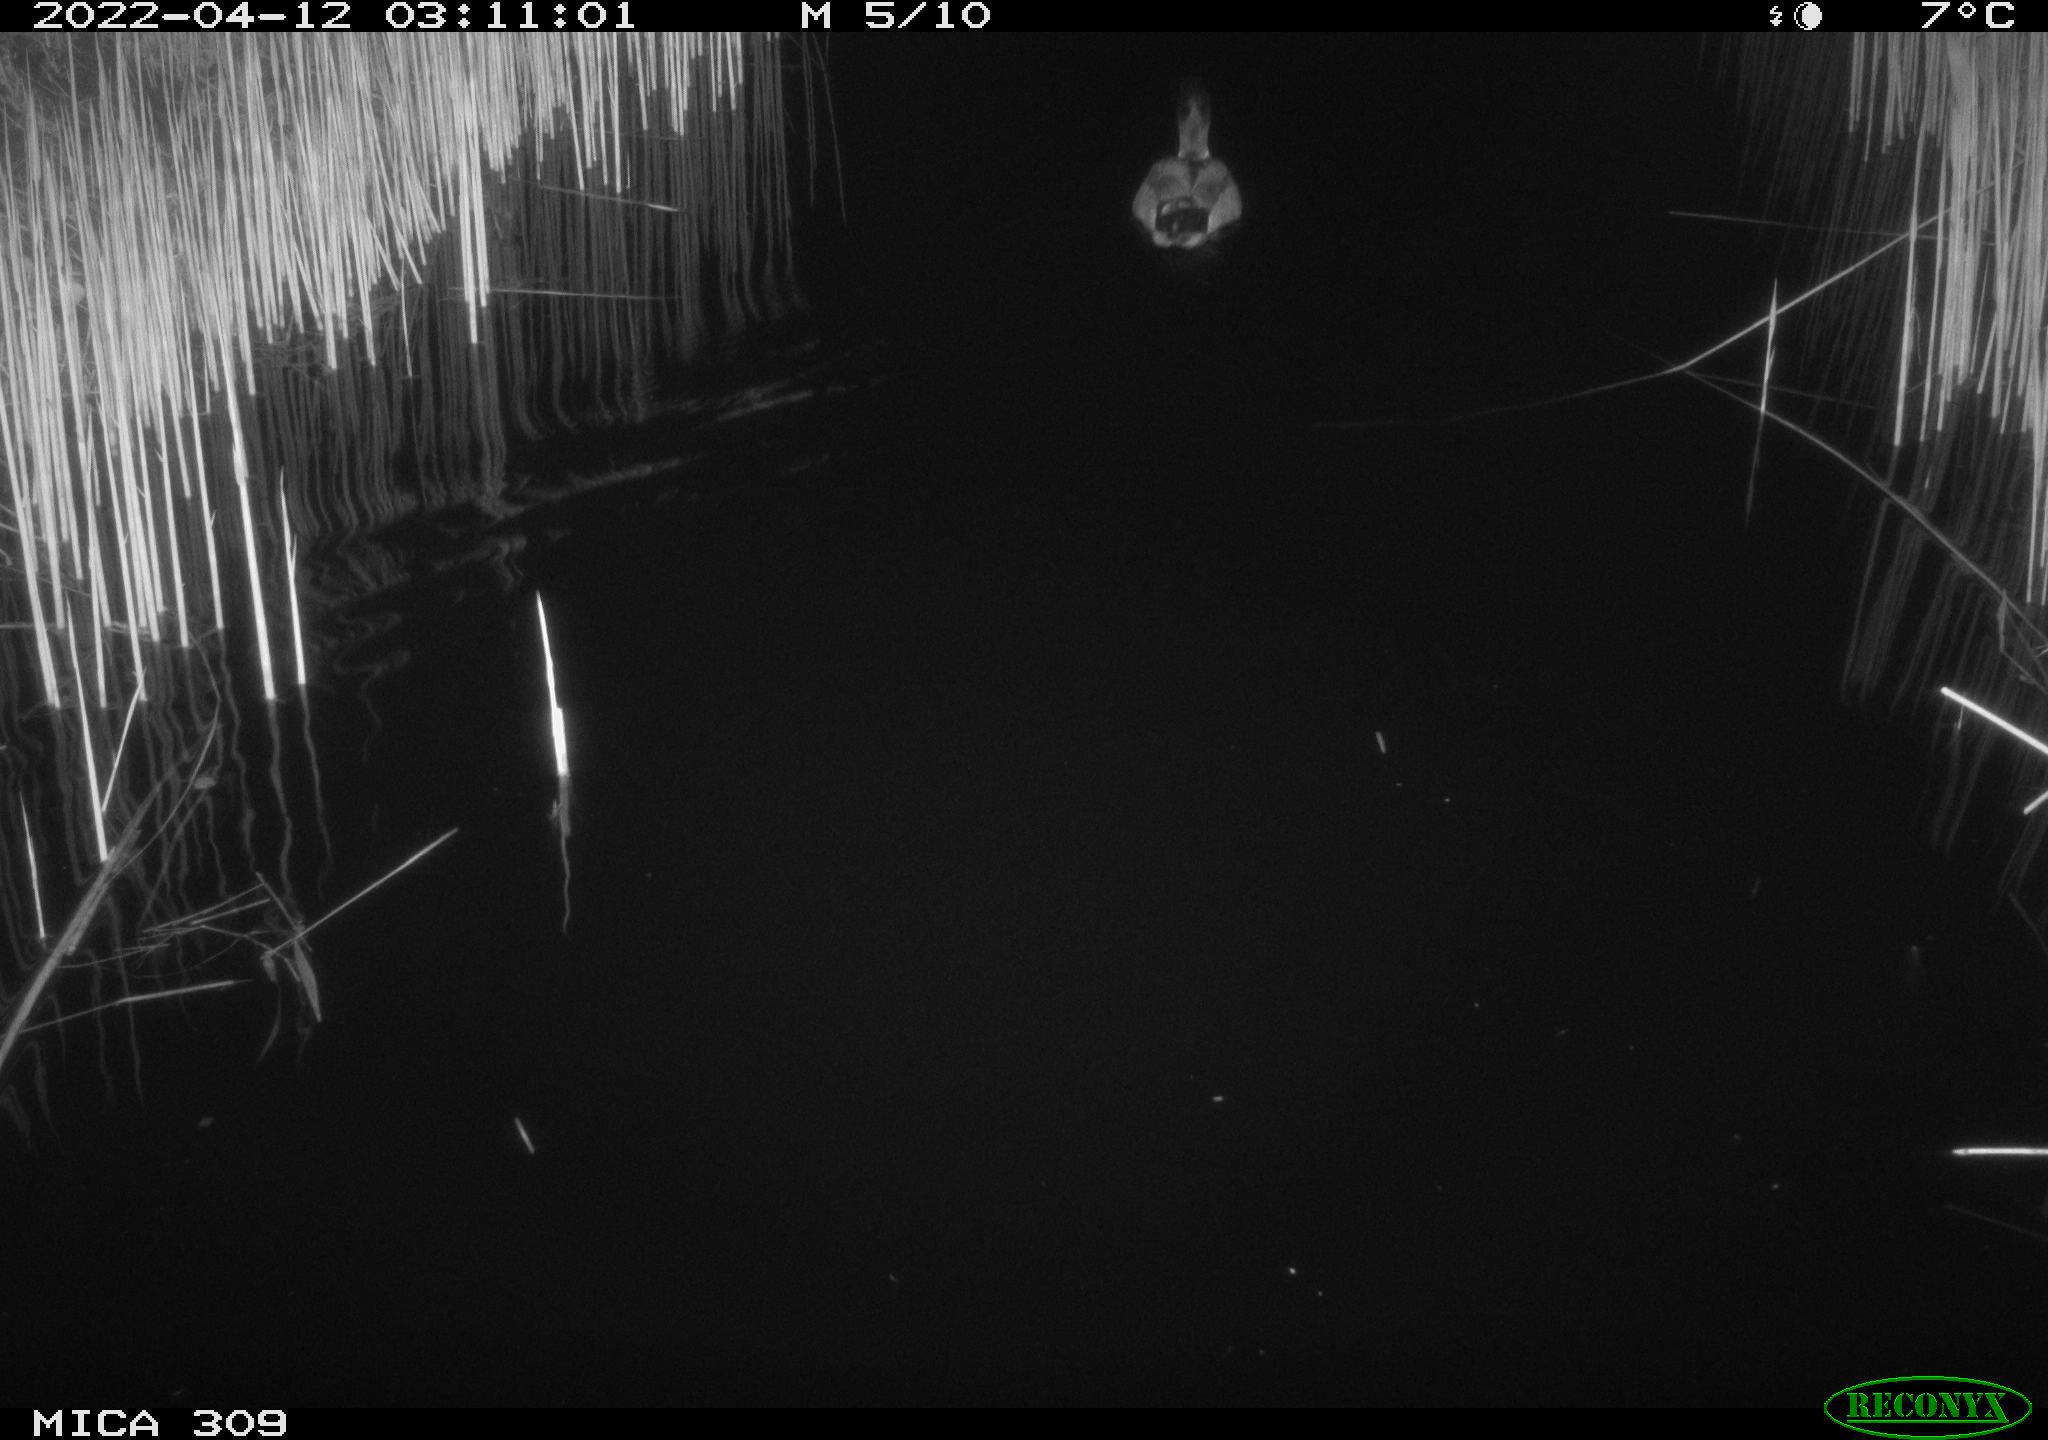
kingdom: Animalia
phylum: Chordata
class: Aves
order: Anseriformes
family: Anatidae
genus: Anas
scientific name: Anas platyrhynchos
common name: Mallard
